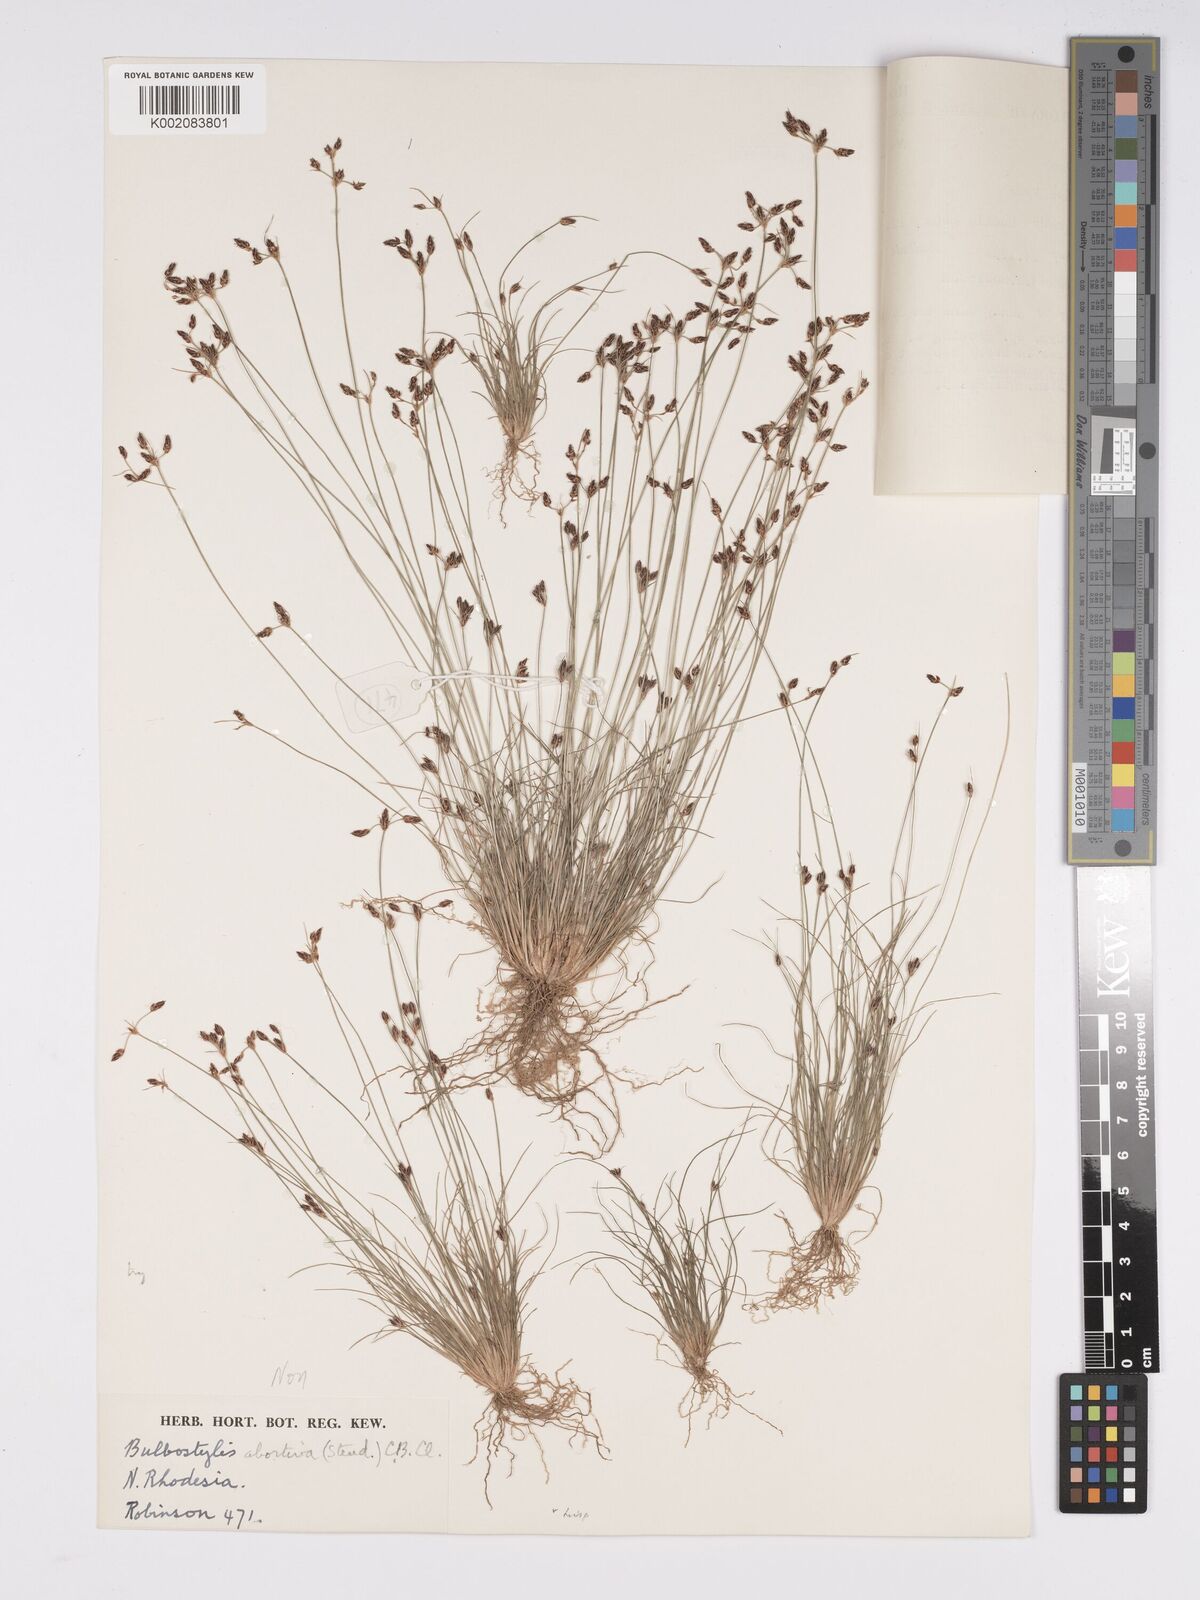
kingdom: Plantae
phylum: Tracheophyta
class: Liliopsida
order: Poales
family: Cyperaceae
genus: Bulbostylis
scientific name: Bulbostylis hispidula
